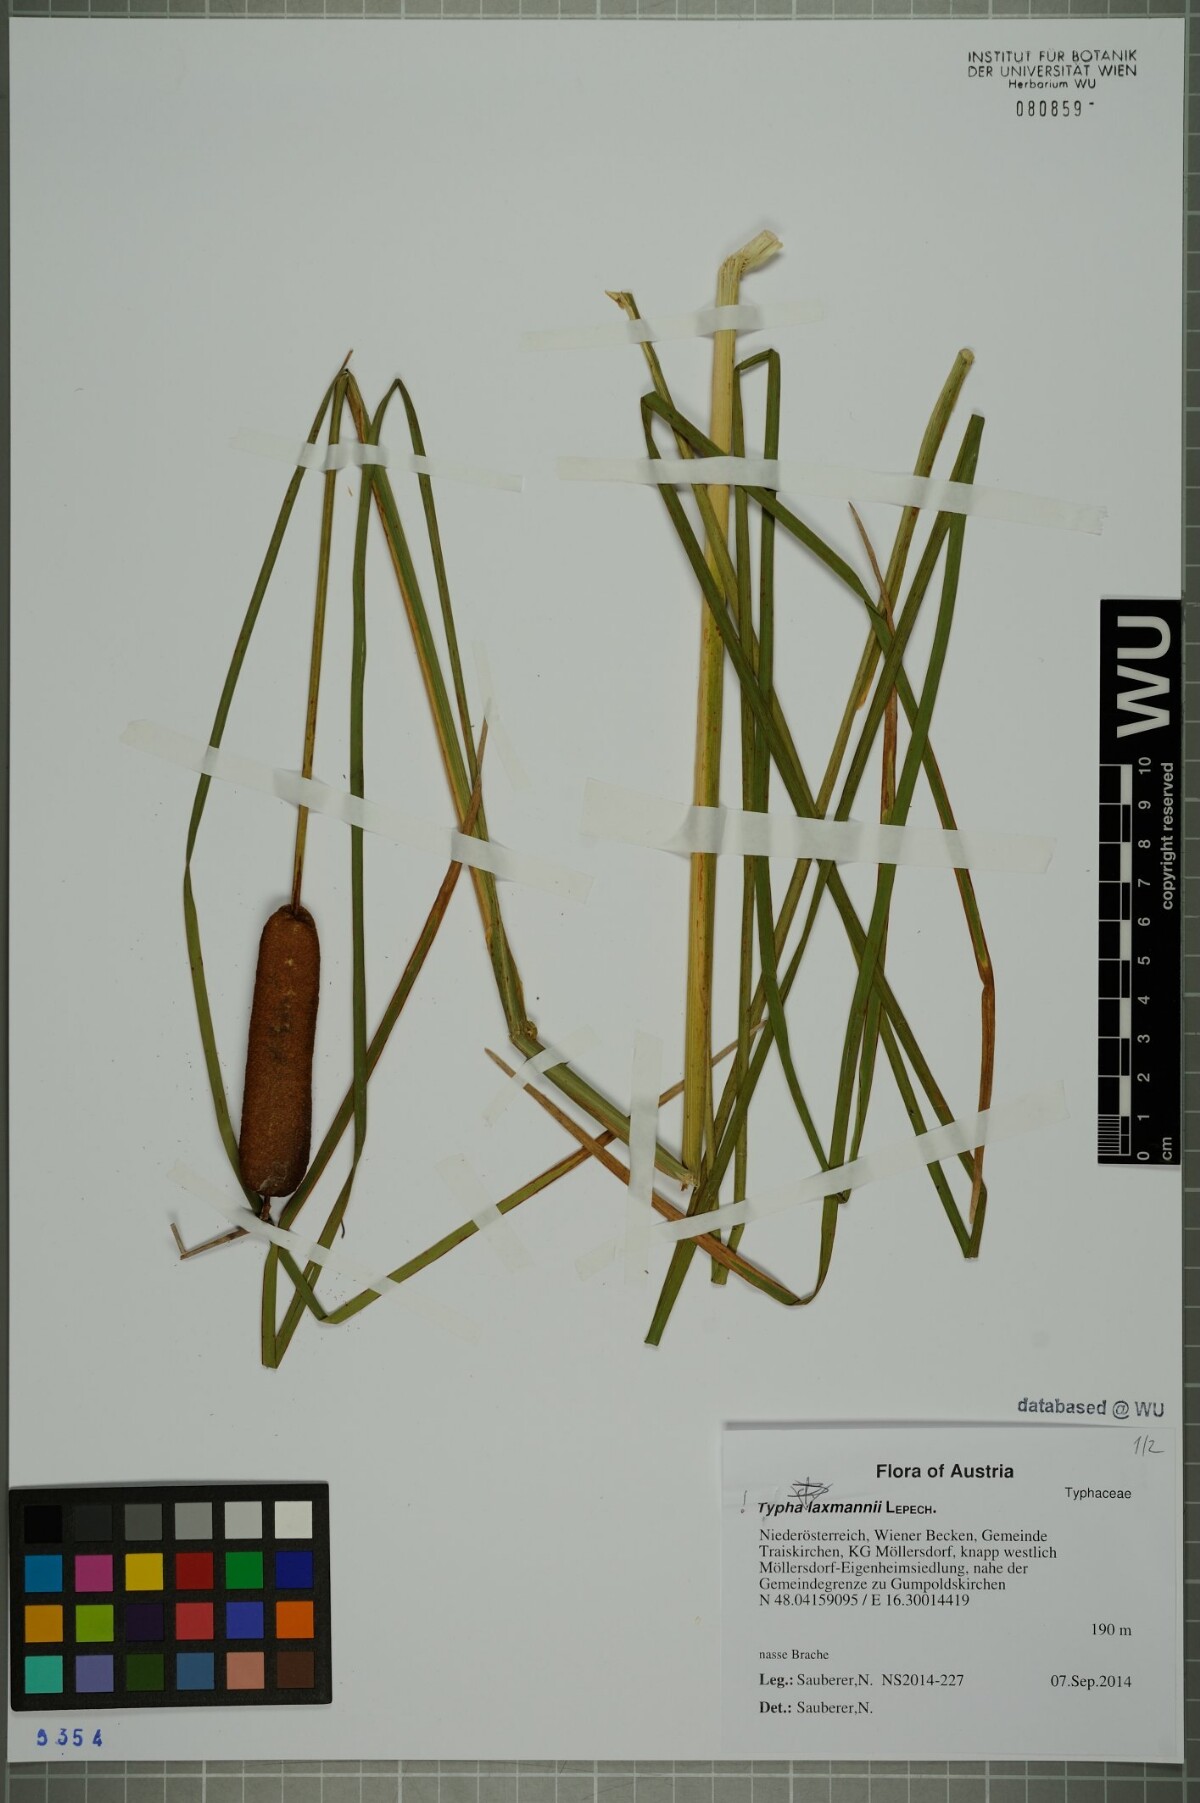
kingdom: Plantae
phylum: Tracheophyta
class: Liliopsida
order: Poales
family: Typhaceae
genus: Typha
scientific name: Typha laxmannii
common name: Laxman’s bulrush
